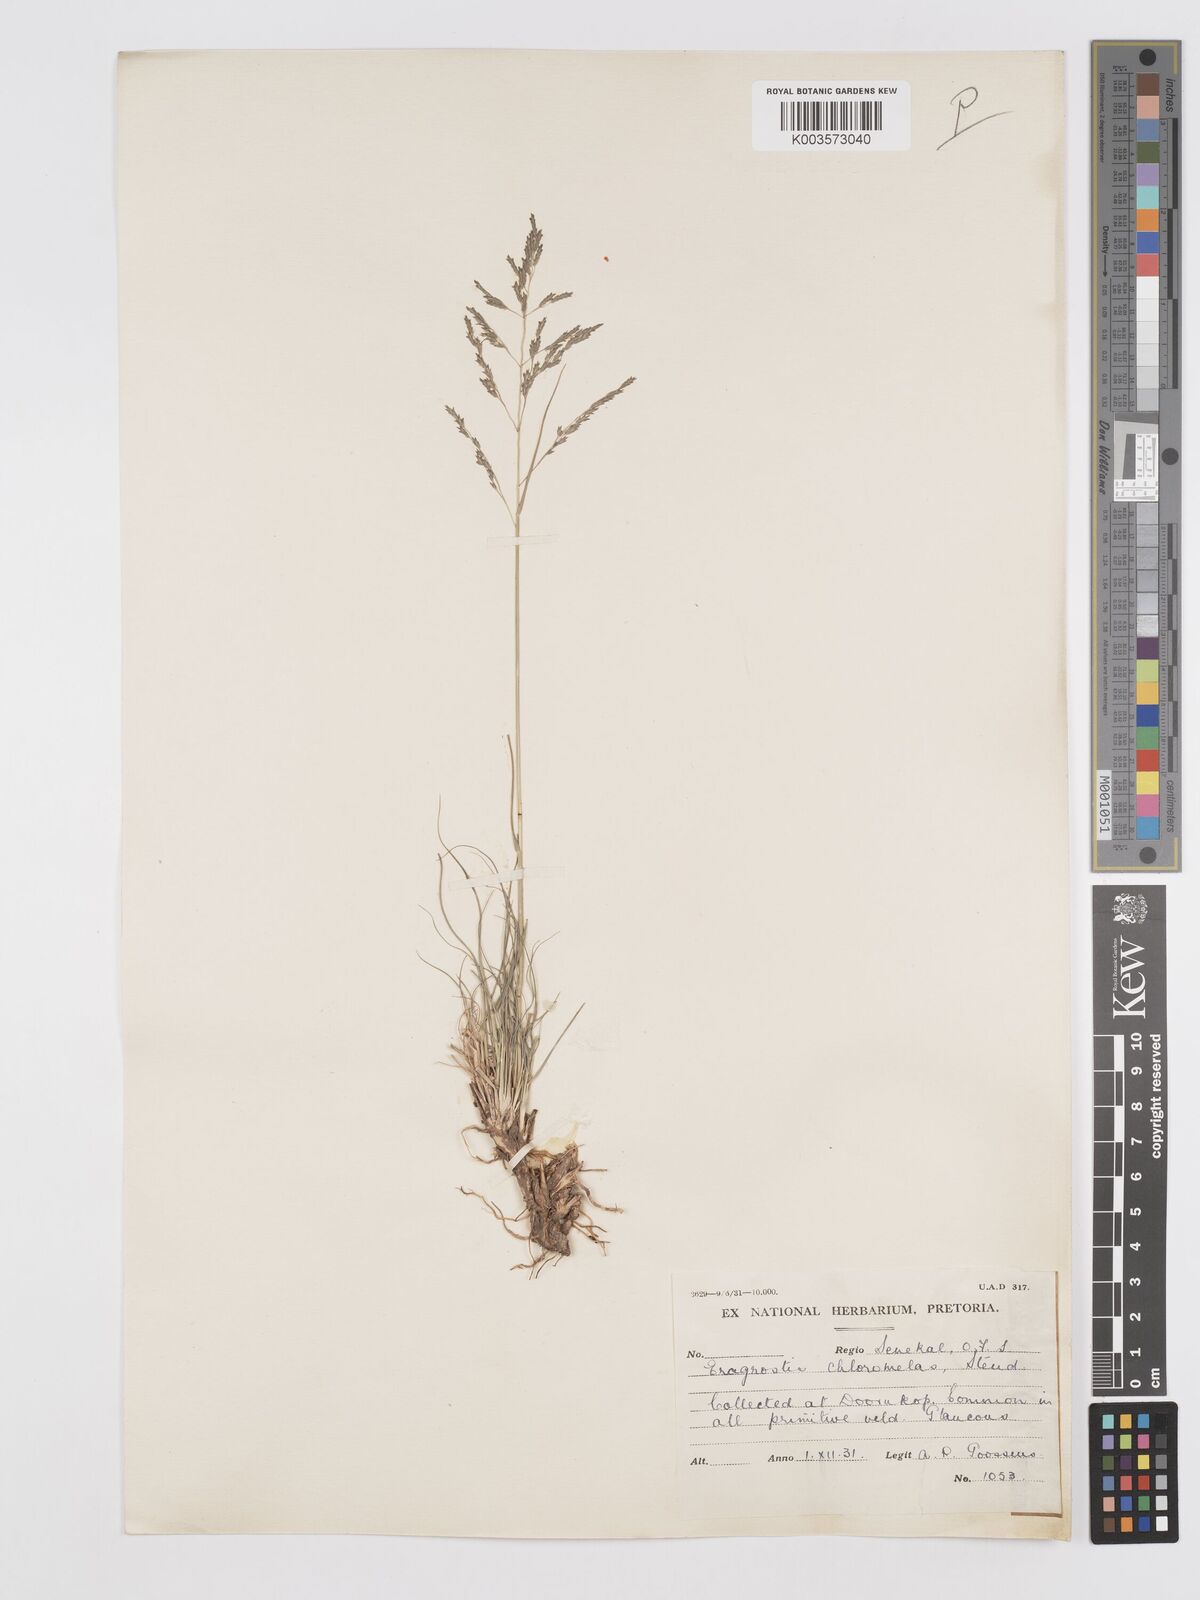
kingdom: Plantae
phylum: Tracheophyta
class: Liliopsida
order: Poales
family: Poaceae
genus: Eragrostis
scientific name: Eragrostis curvula
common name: African love-grass
